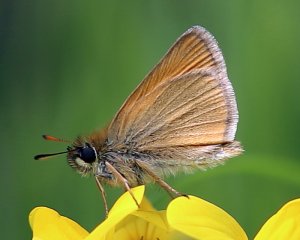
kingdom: Animalia
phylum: Arthropoda
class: Insecta
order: Lepidoptera
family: Hesperiidae
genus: Thymelicus
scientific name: Thymelicus lineola
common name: European Skipper
